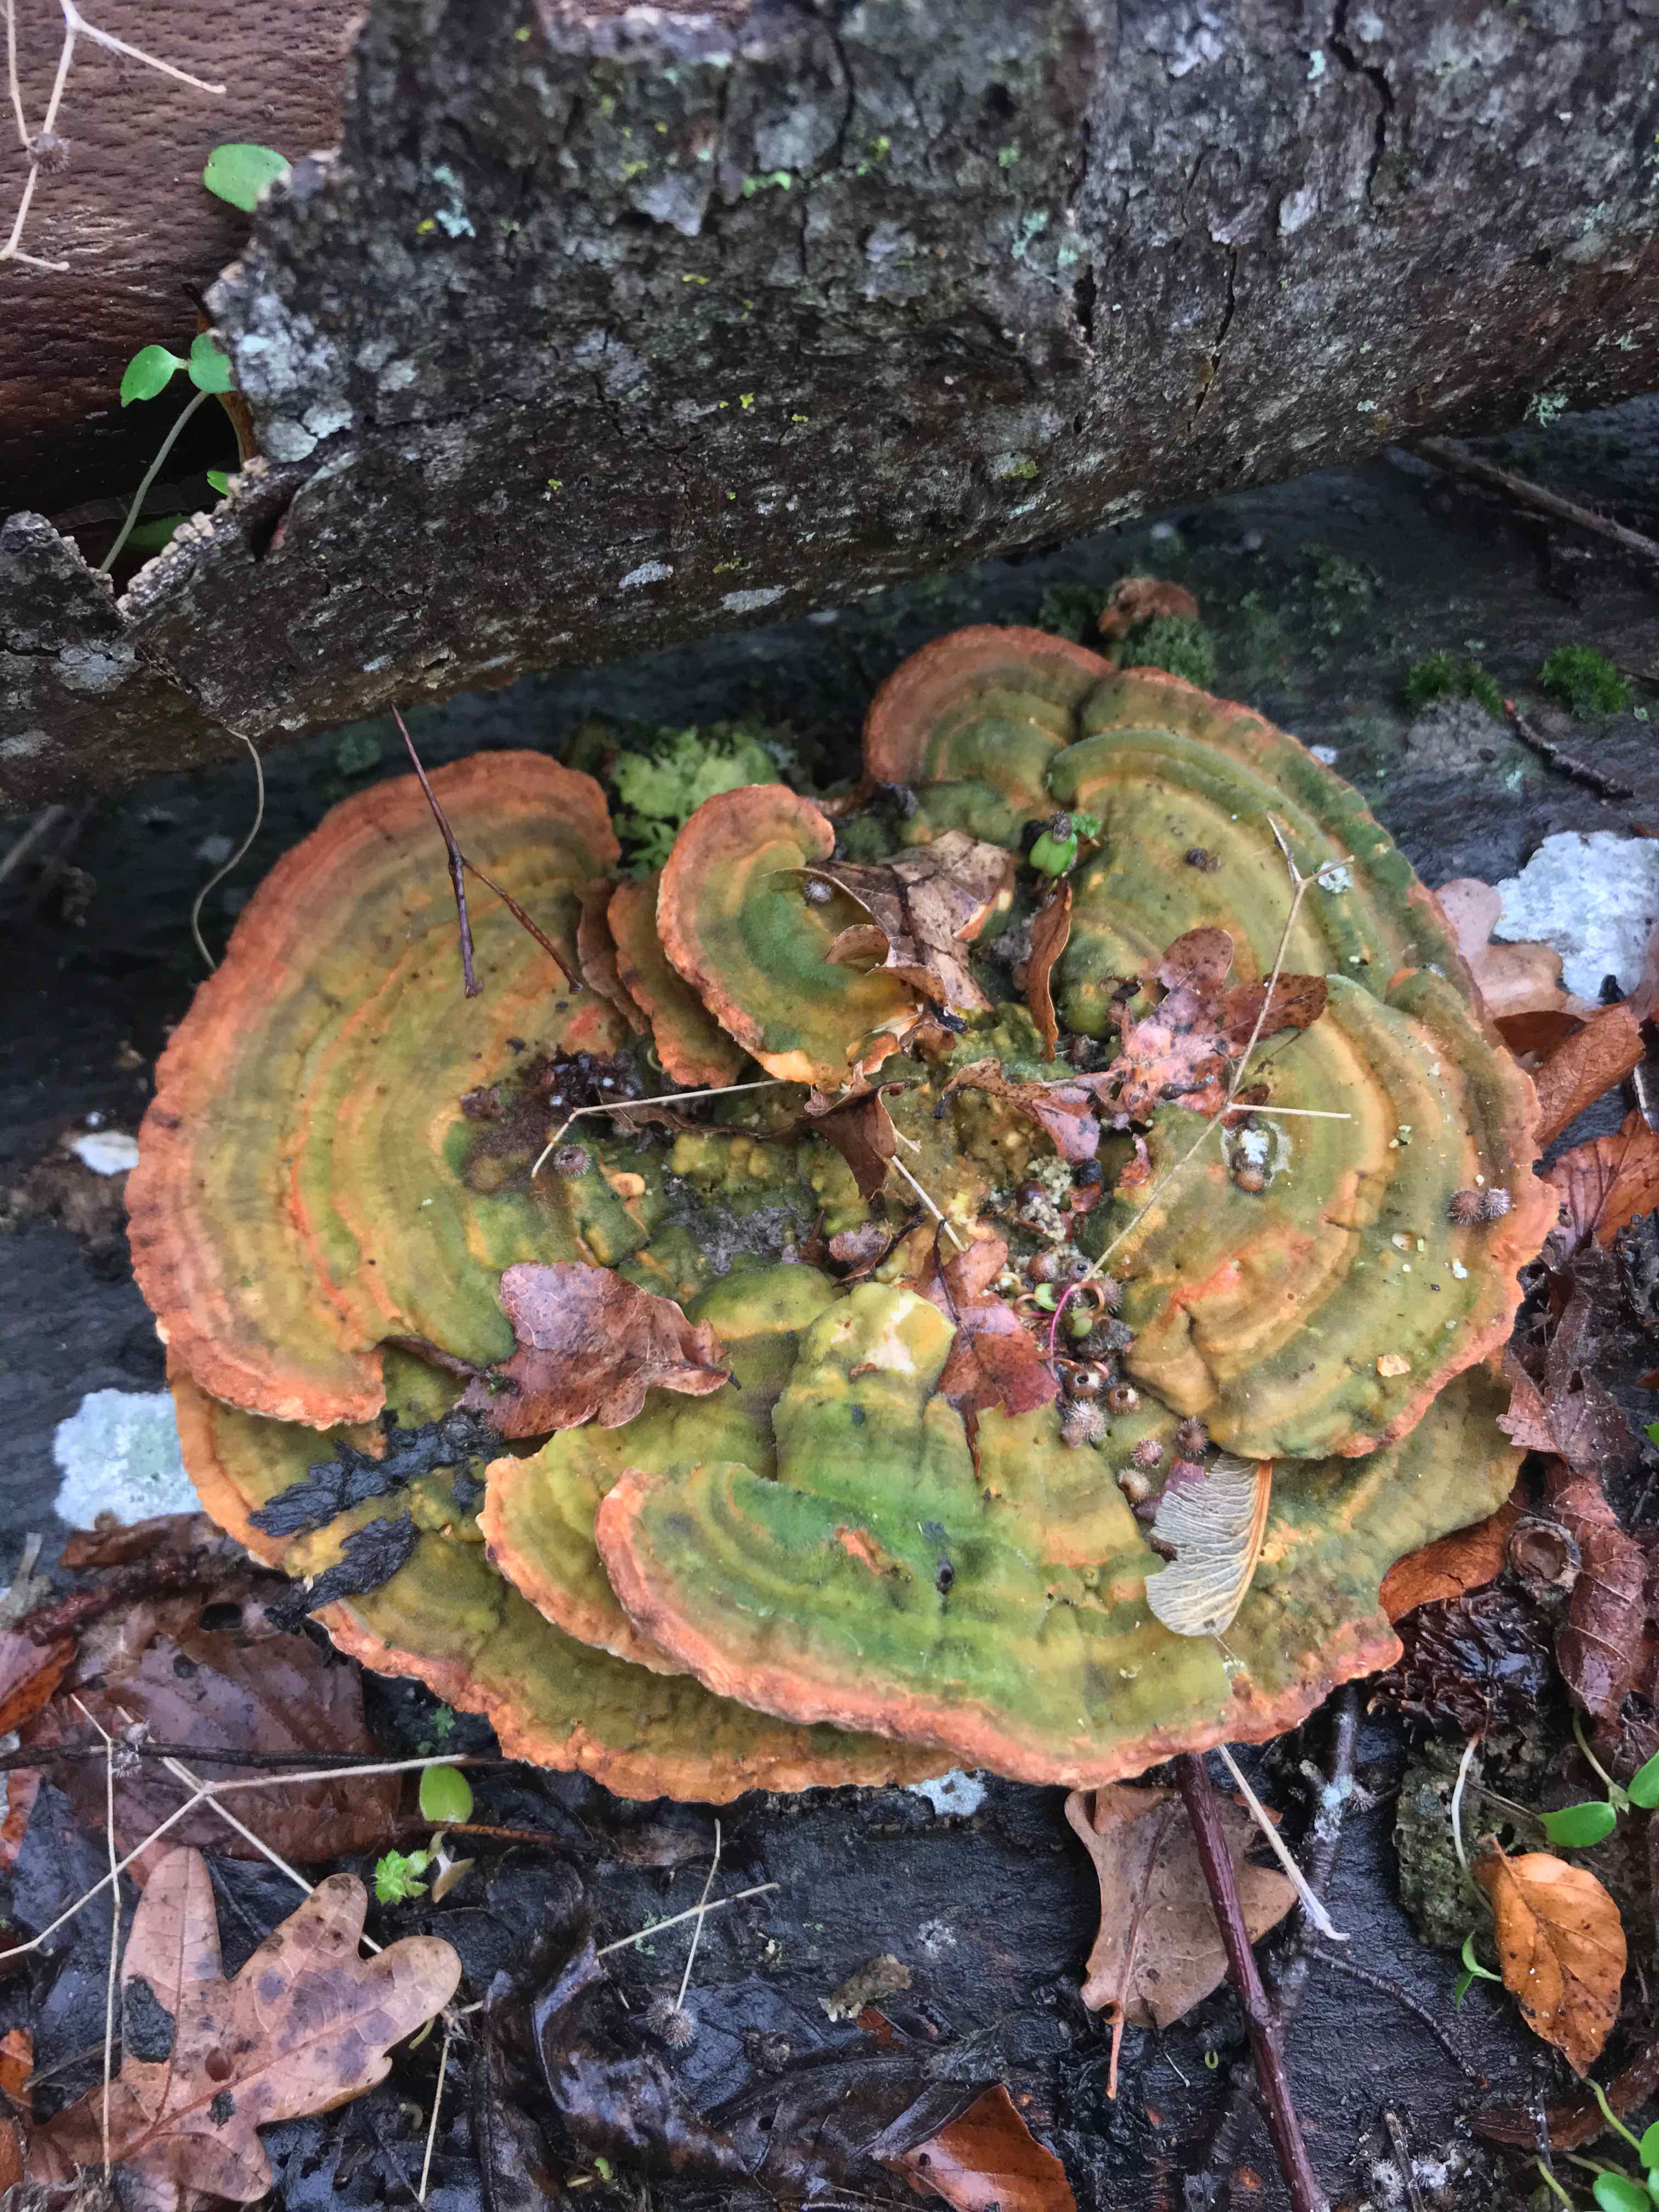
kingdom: Fungi
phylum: Basidiomycota
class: Agaricomycetes
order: Polyporales
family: Polyporaceae
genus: Lenzites
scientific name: Lenzites betulinus
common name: birke-læderporesvamp
